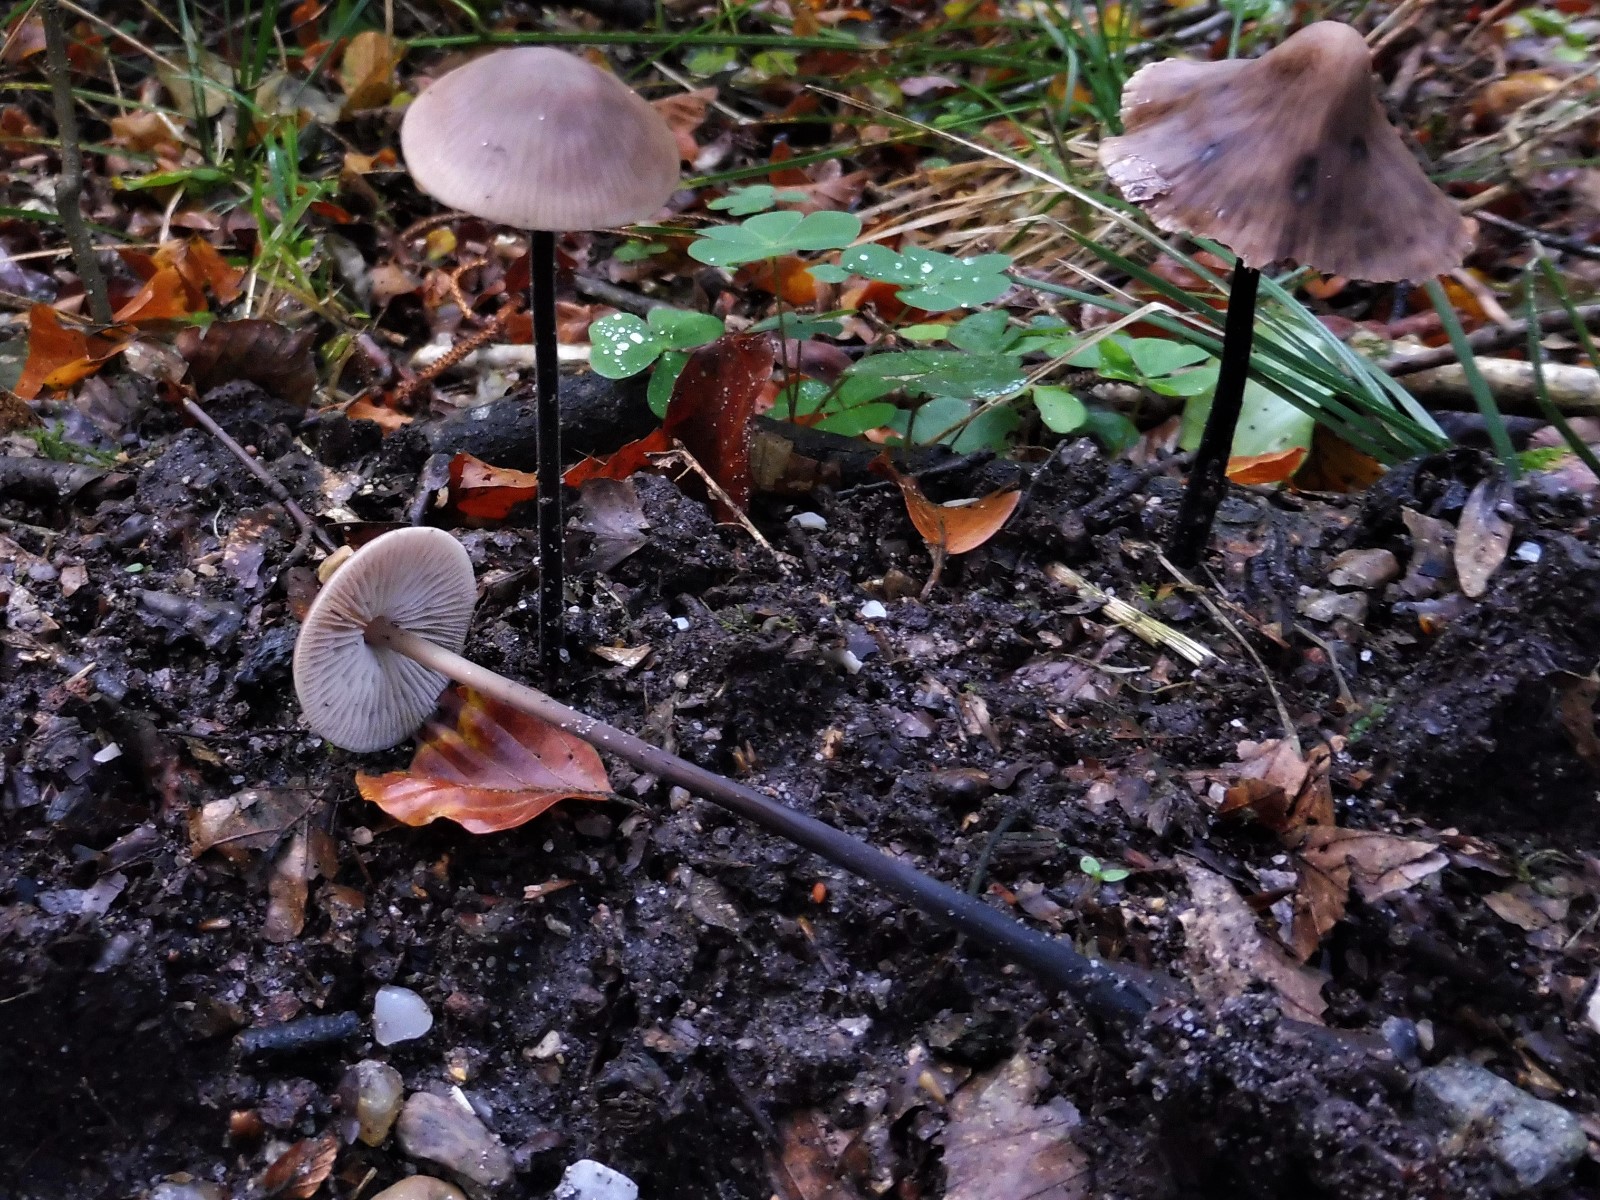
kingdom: Fungi
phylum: Basidiomycota
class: Agaricomycetes
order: Agaricales
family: Omphalotaceae
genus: Mycetinis
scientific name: Mycetinis alliaceus
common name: stor løghat
